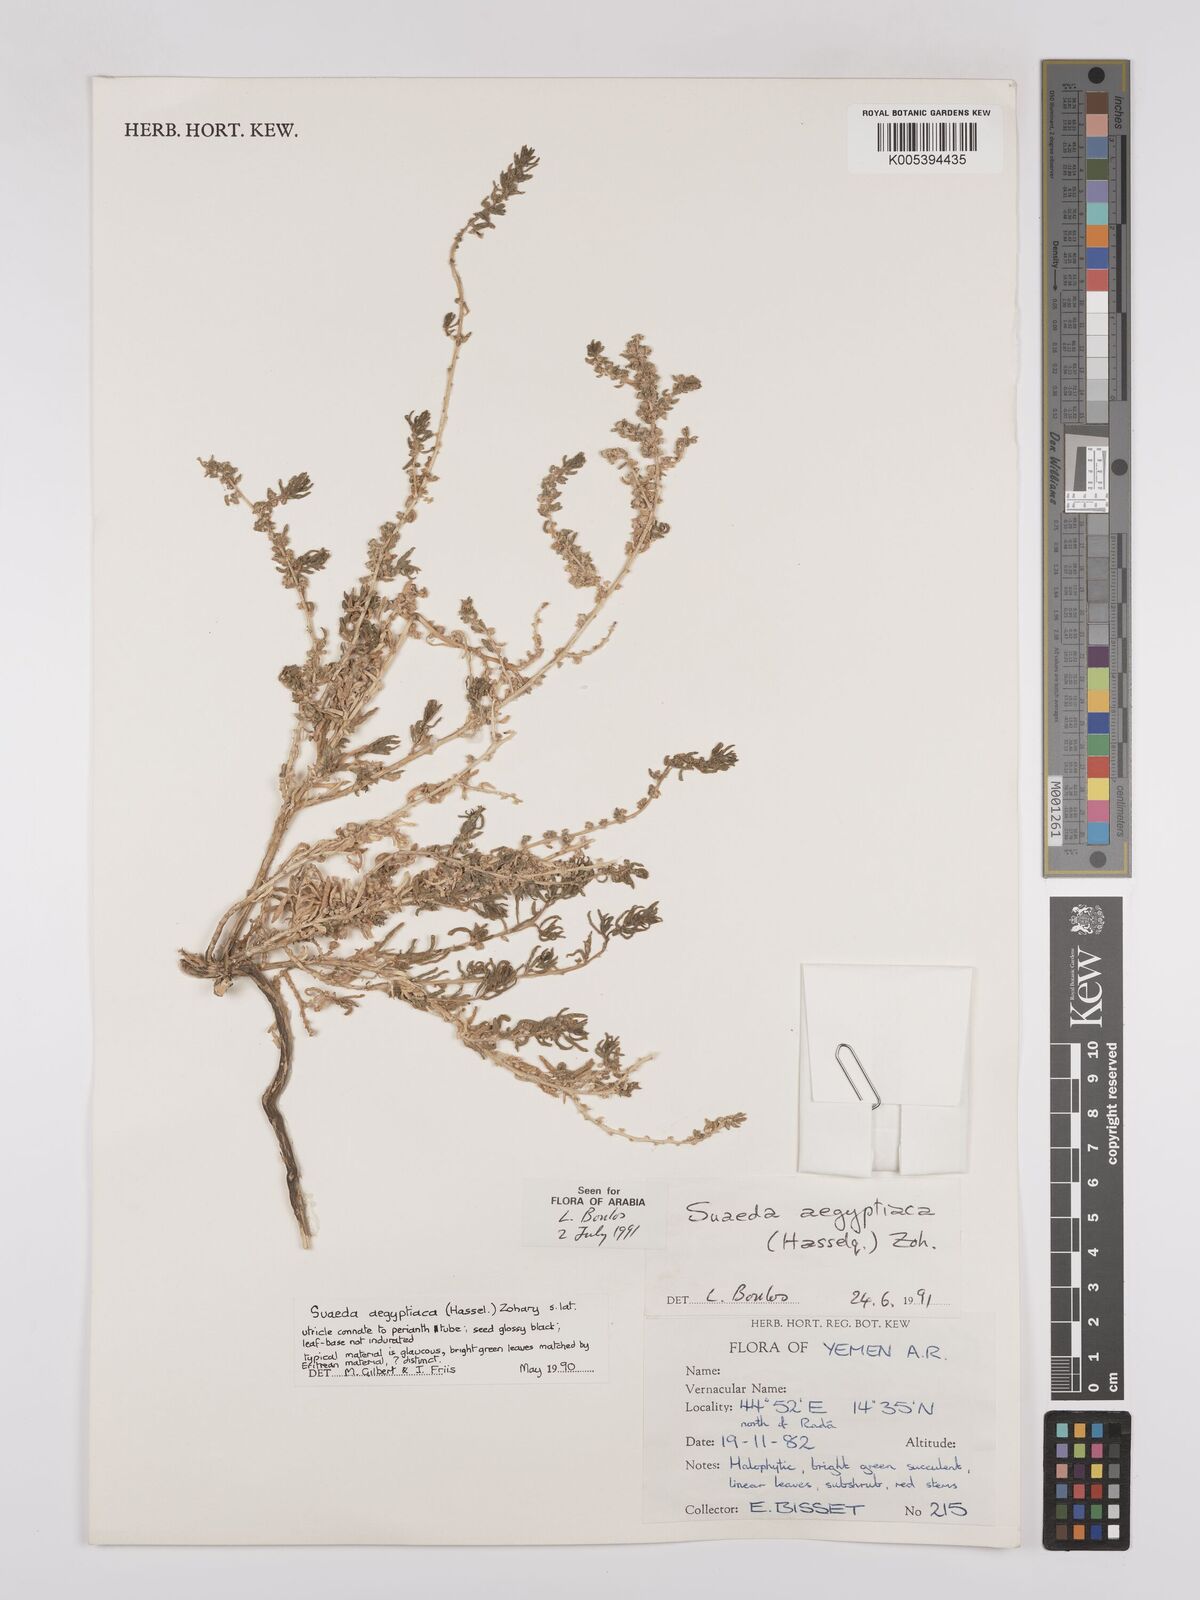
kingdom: Plantae
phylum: Tracheophyta
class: Magnoliopsida
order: Caryophyllales
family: Amaranthaceae
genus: Suaeda
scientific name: Suaeda aegyptiaca
